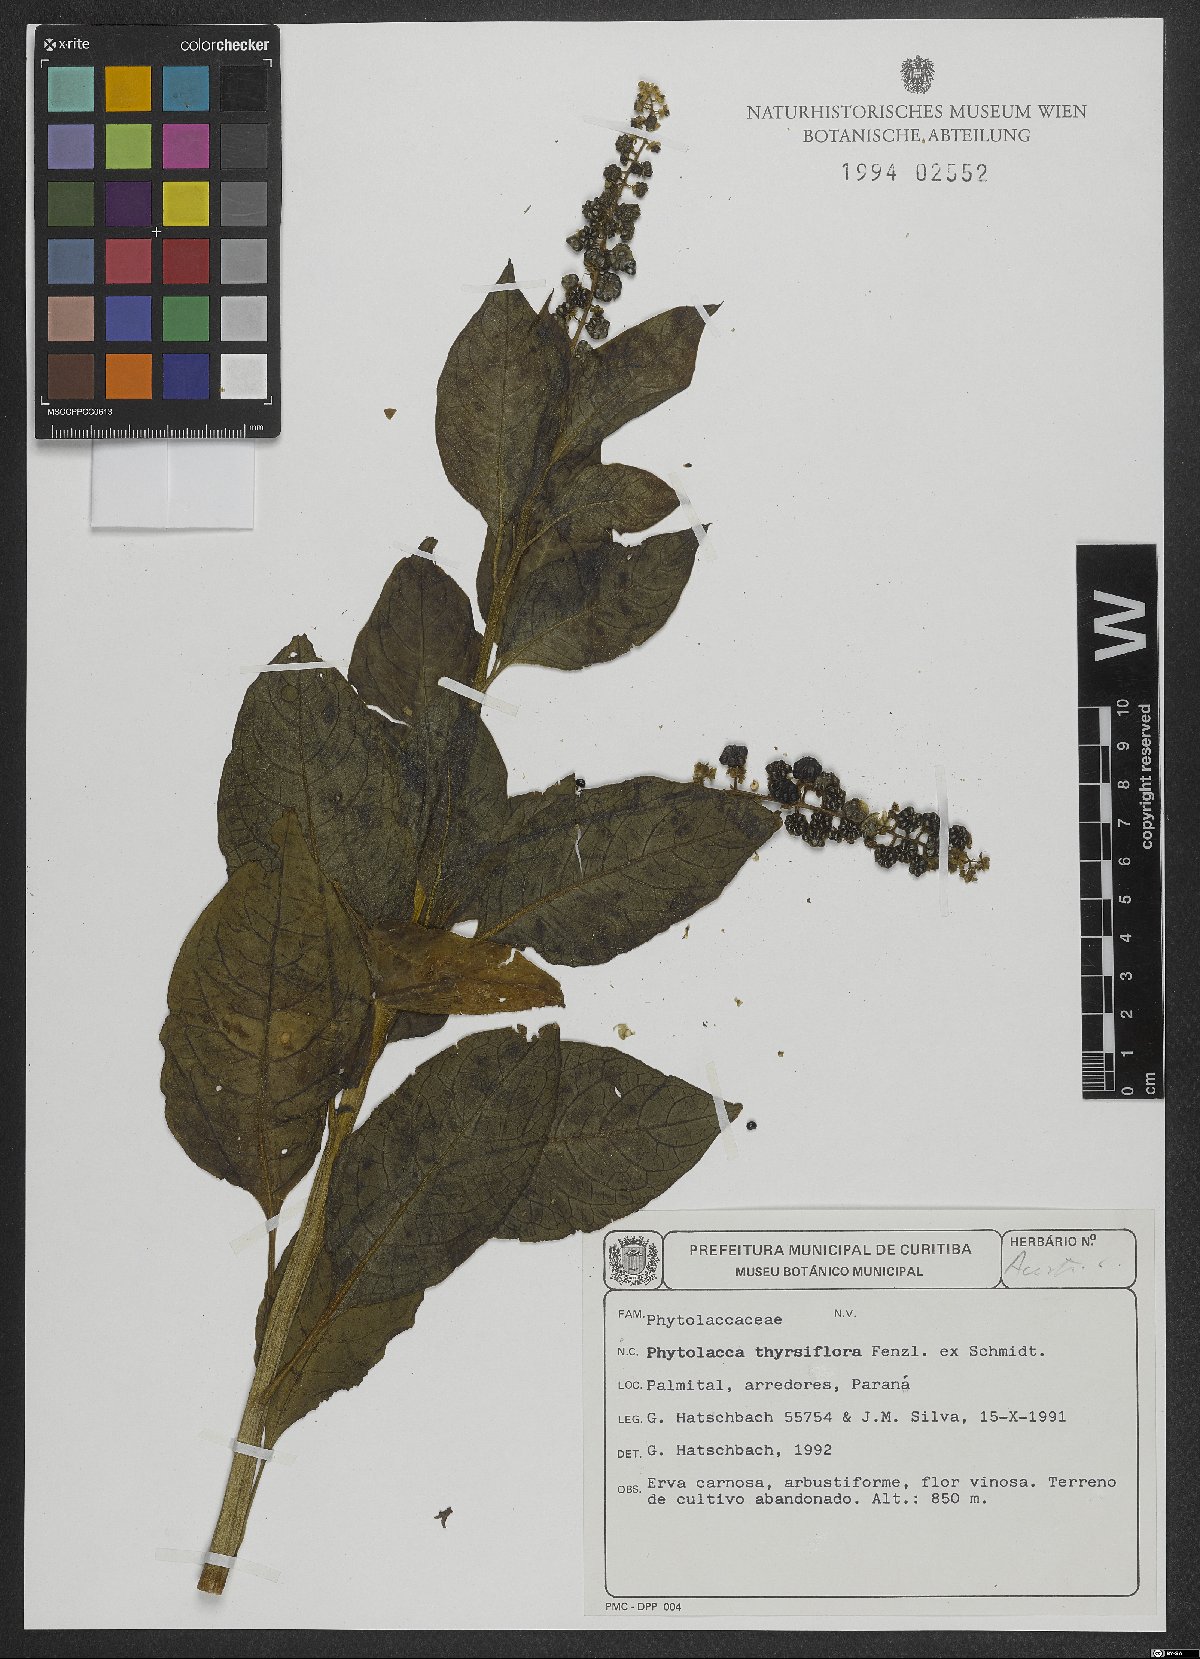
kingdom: Plantae
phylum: Tracheophyta
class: Magnoliopsida
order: Caryophyllales
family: Phytolaccaceae
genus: Phytolacca
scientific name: Phytolacca thyrsiflora
